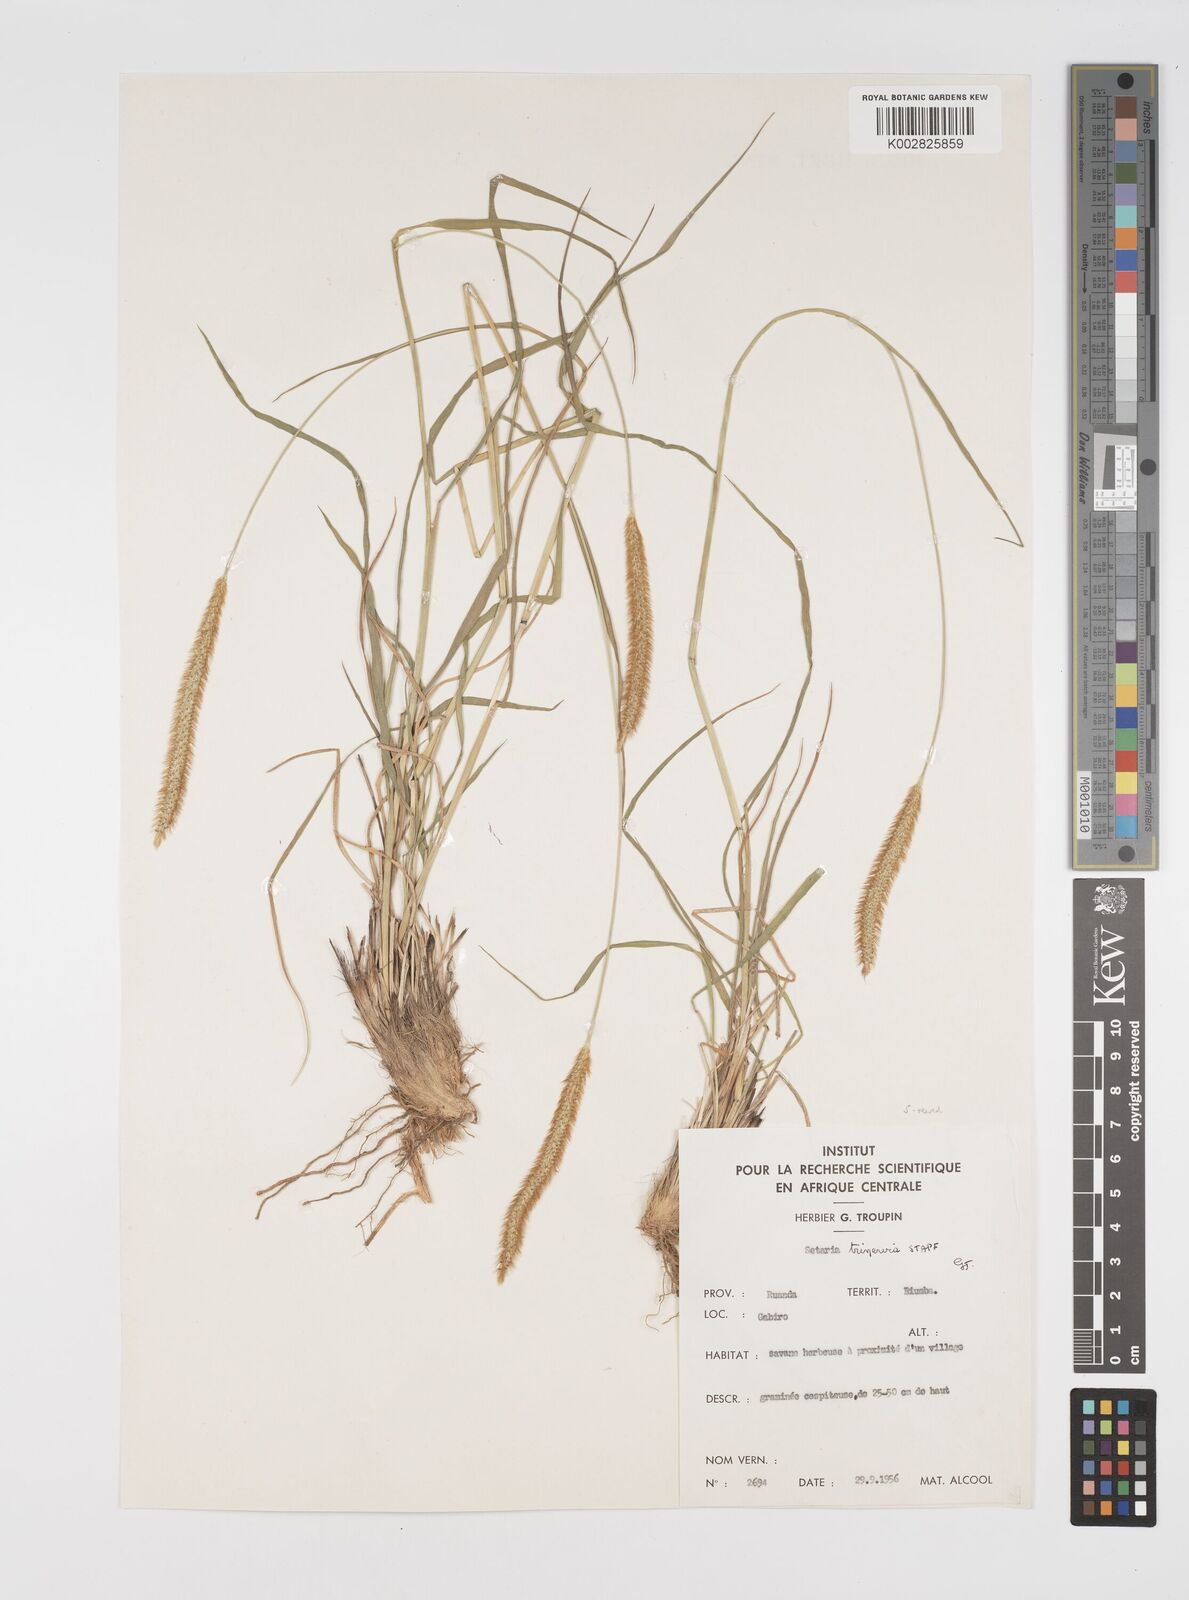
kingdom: Plantae
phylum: Tracheophyta
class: Liliopsida
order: Poales
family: Poaceae
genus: Setaria
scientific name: Setaria sphacelata
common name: African bristlegrass
